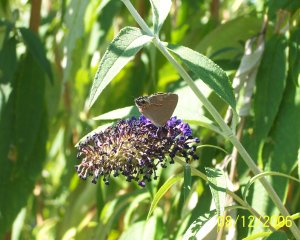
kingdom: Animalia
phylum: Arthropoda
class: Insecta
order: Lepidoptera
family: Lycaenidae
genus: Calycopis
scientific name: Calycopis cecrops
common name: Red-banded Hairstreak
